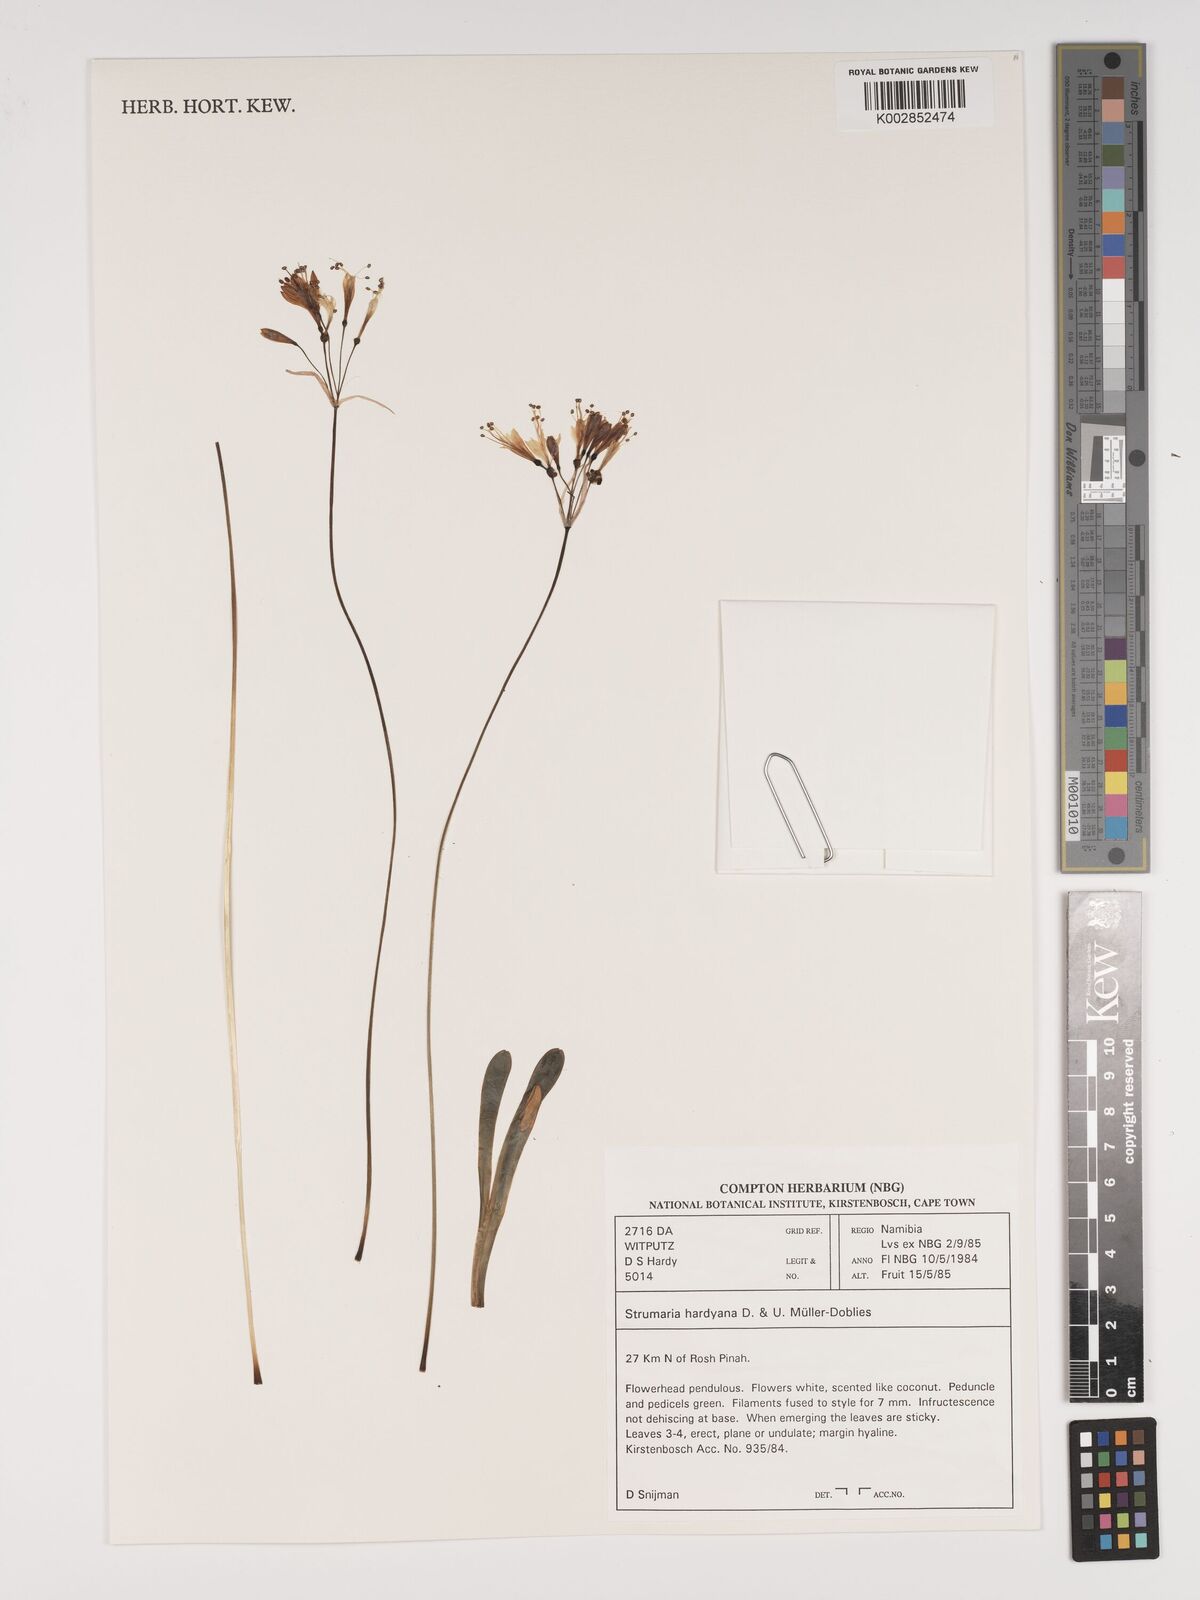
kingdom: Plantae
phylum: Tracheophyta
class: Liliopsida
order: Asparagales
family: Amaryllidaceae
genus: Strumaria
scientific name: Strumaria hardyana
